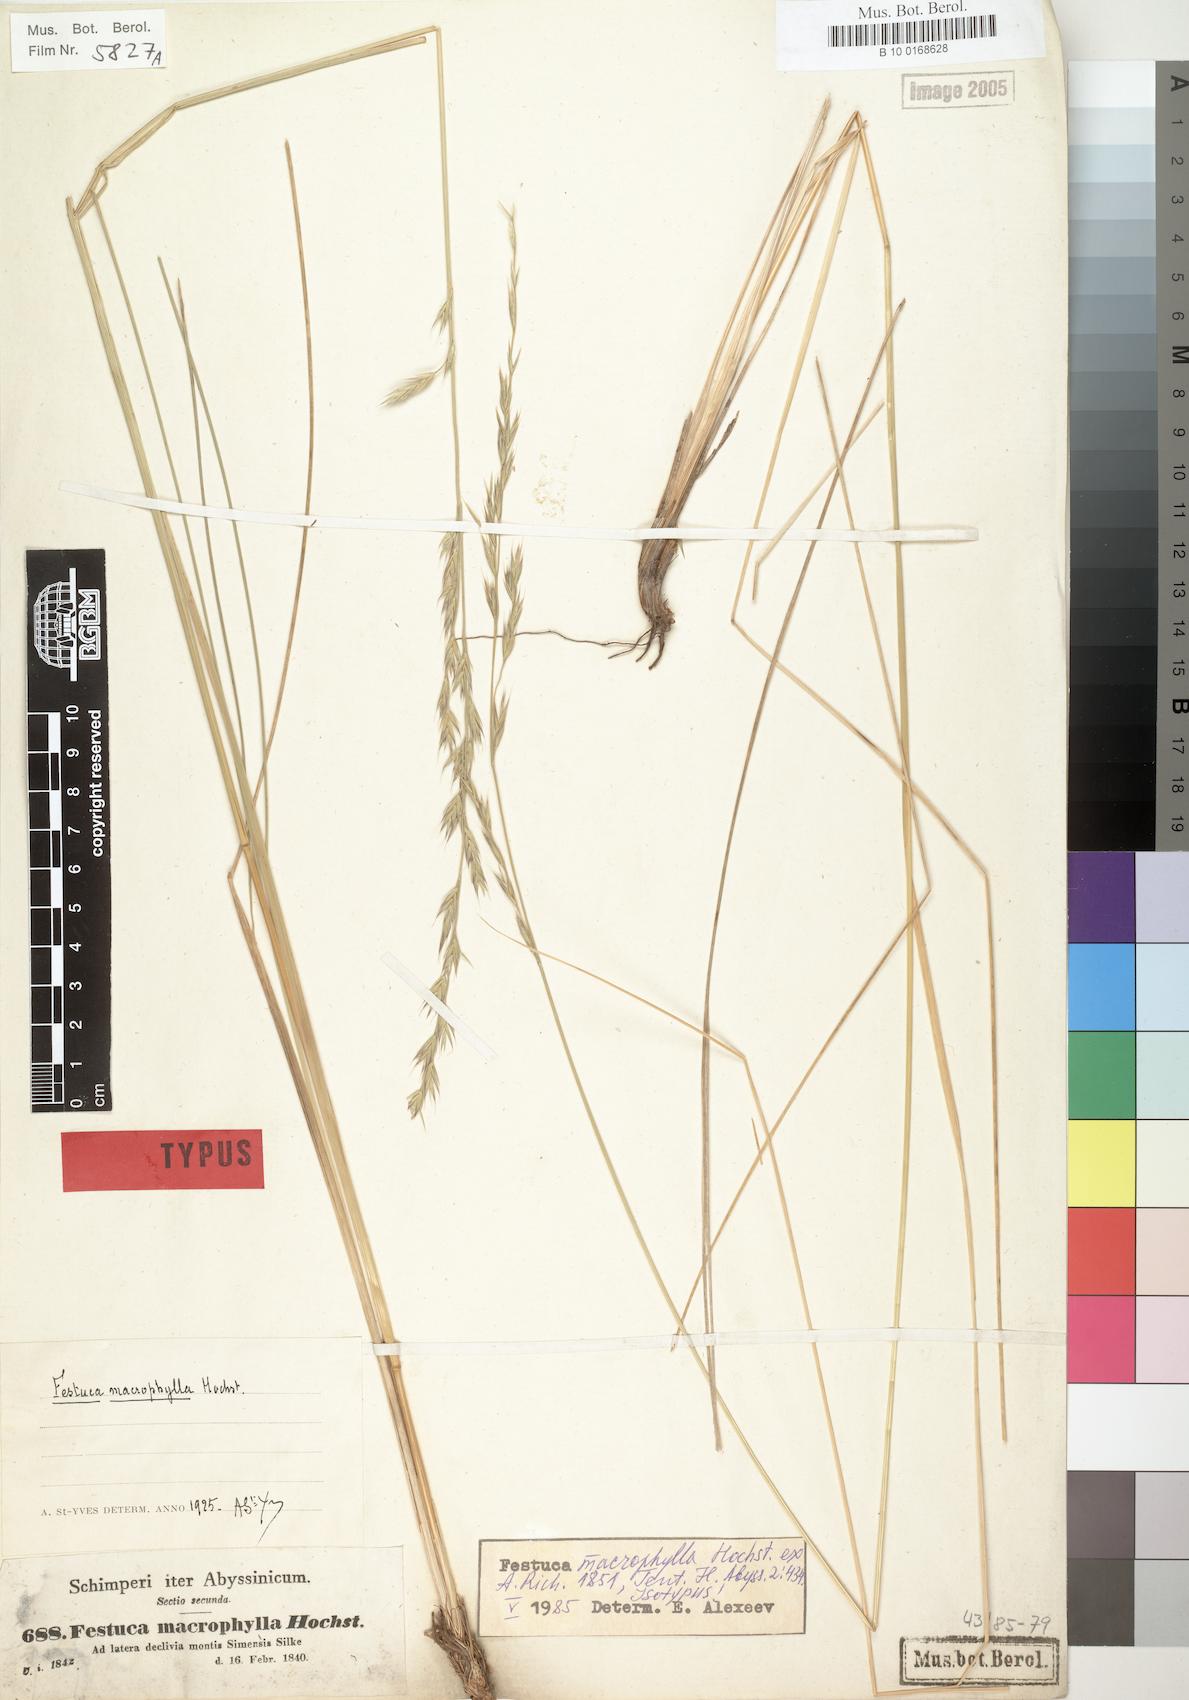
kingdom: Plantae
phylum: Tracheophyta
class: Liliopsida
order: Poales
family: Poaceae
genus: Festuca
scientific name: Festuca macrophylla
